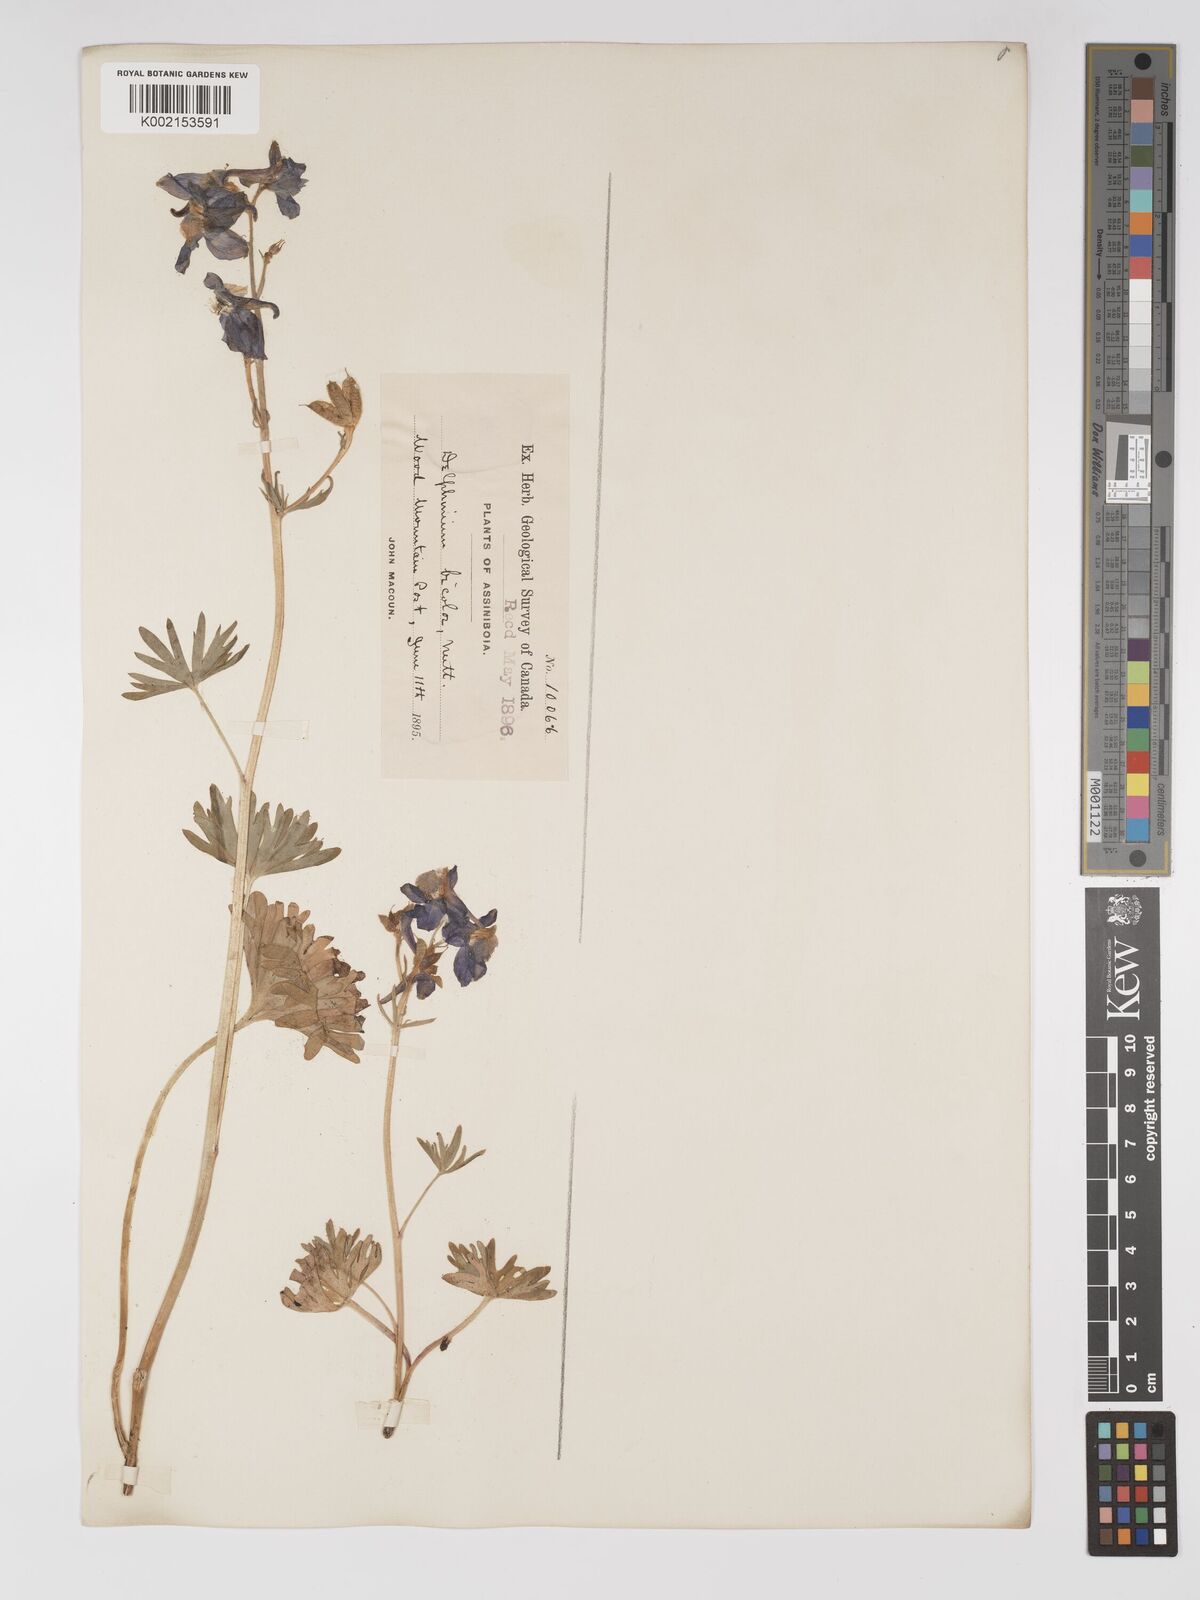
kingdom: Plantae
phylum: Tracheophyta
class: Magnoliopsida
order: Ranunculales
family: Ranunculaceae
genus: Delphinium
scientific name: Delphinium bicolor
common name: Low larkspur
